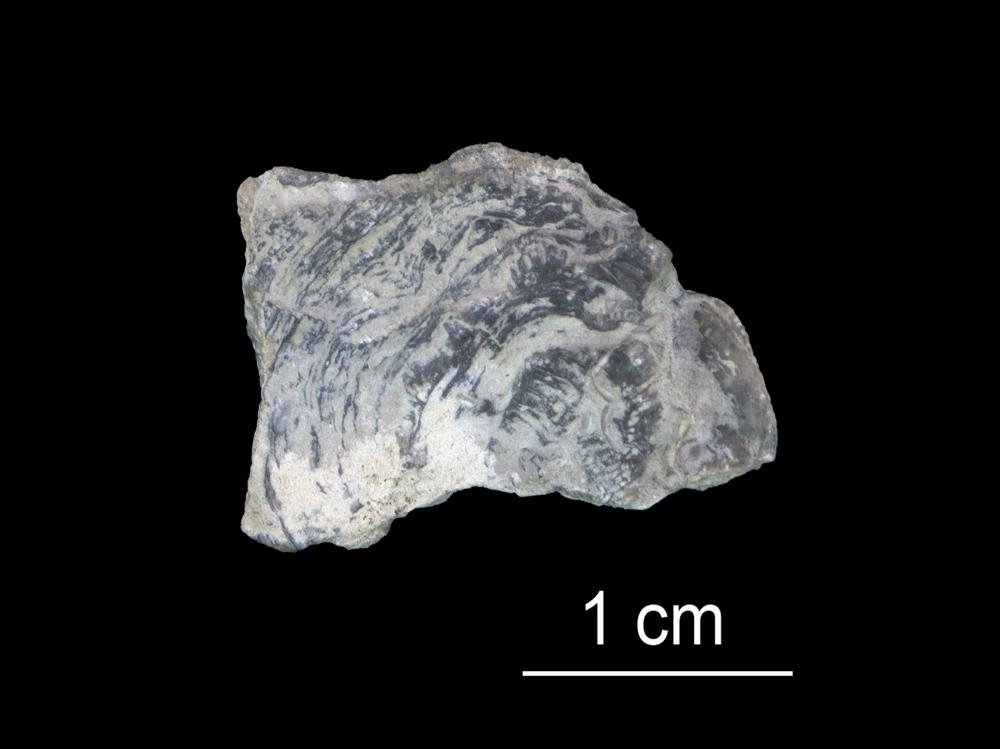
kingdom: Animalia
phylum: Bryozoa
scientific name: Bryozoa
